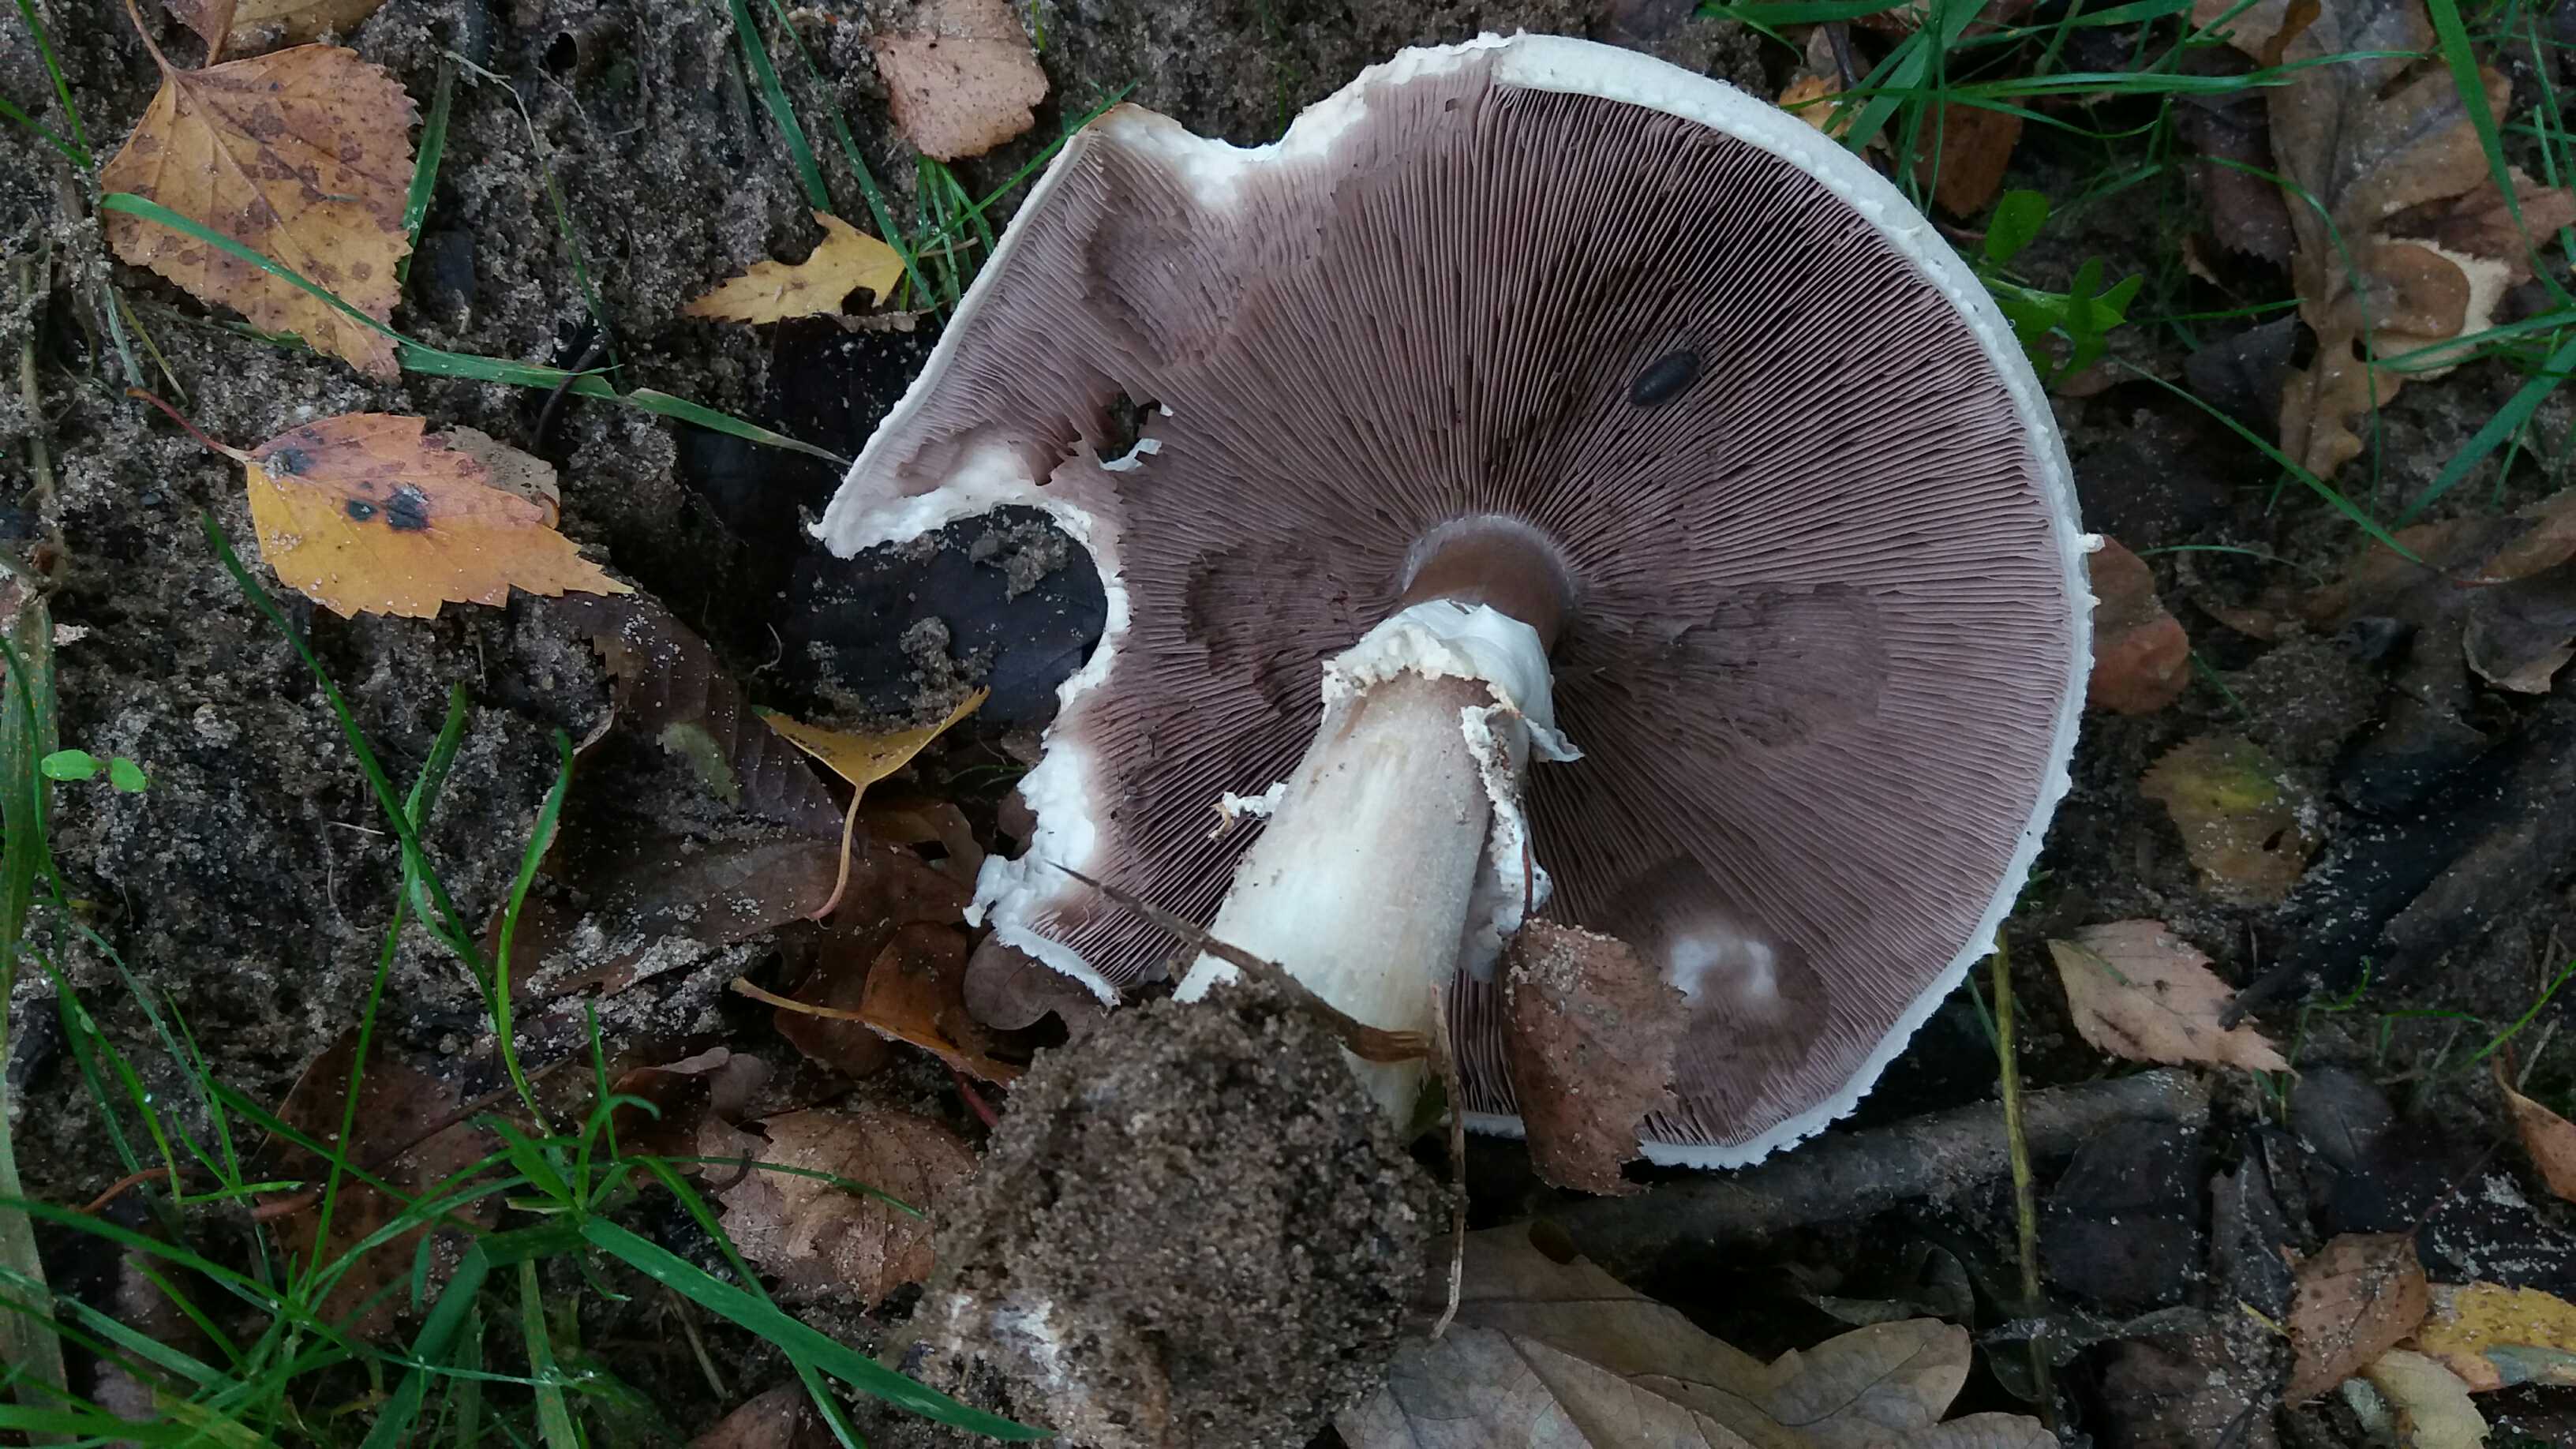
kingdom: Fungi
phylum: Basidiomycota
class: Agaricomycetes
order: Agaricales
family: Agaricaceae
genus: Agaricus
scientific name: Agaricus arvensis
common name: ager-champignon
